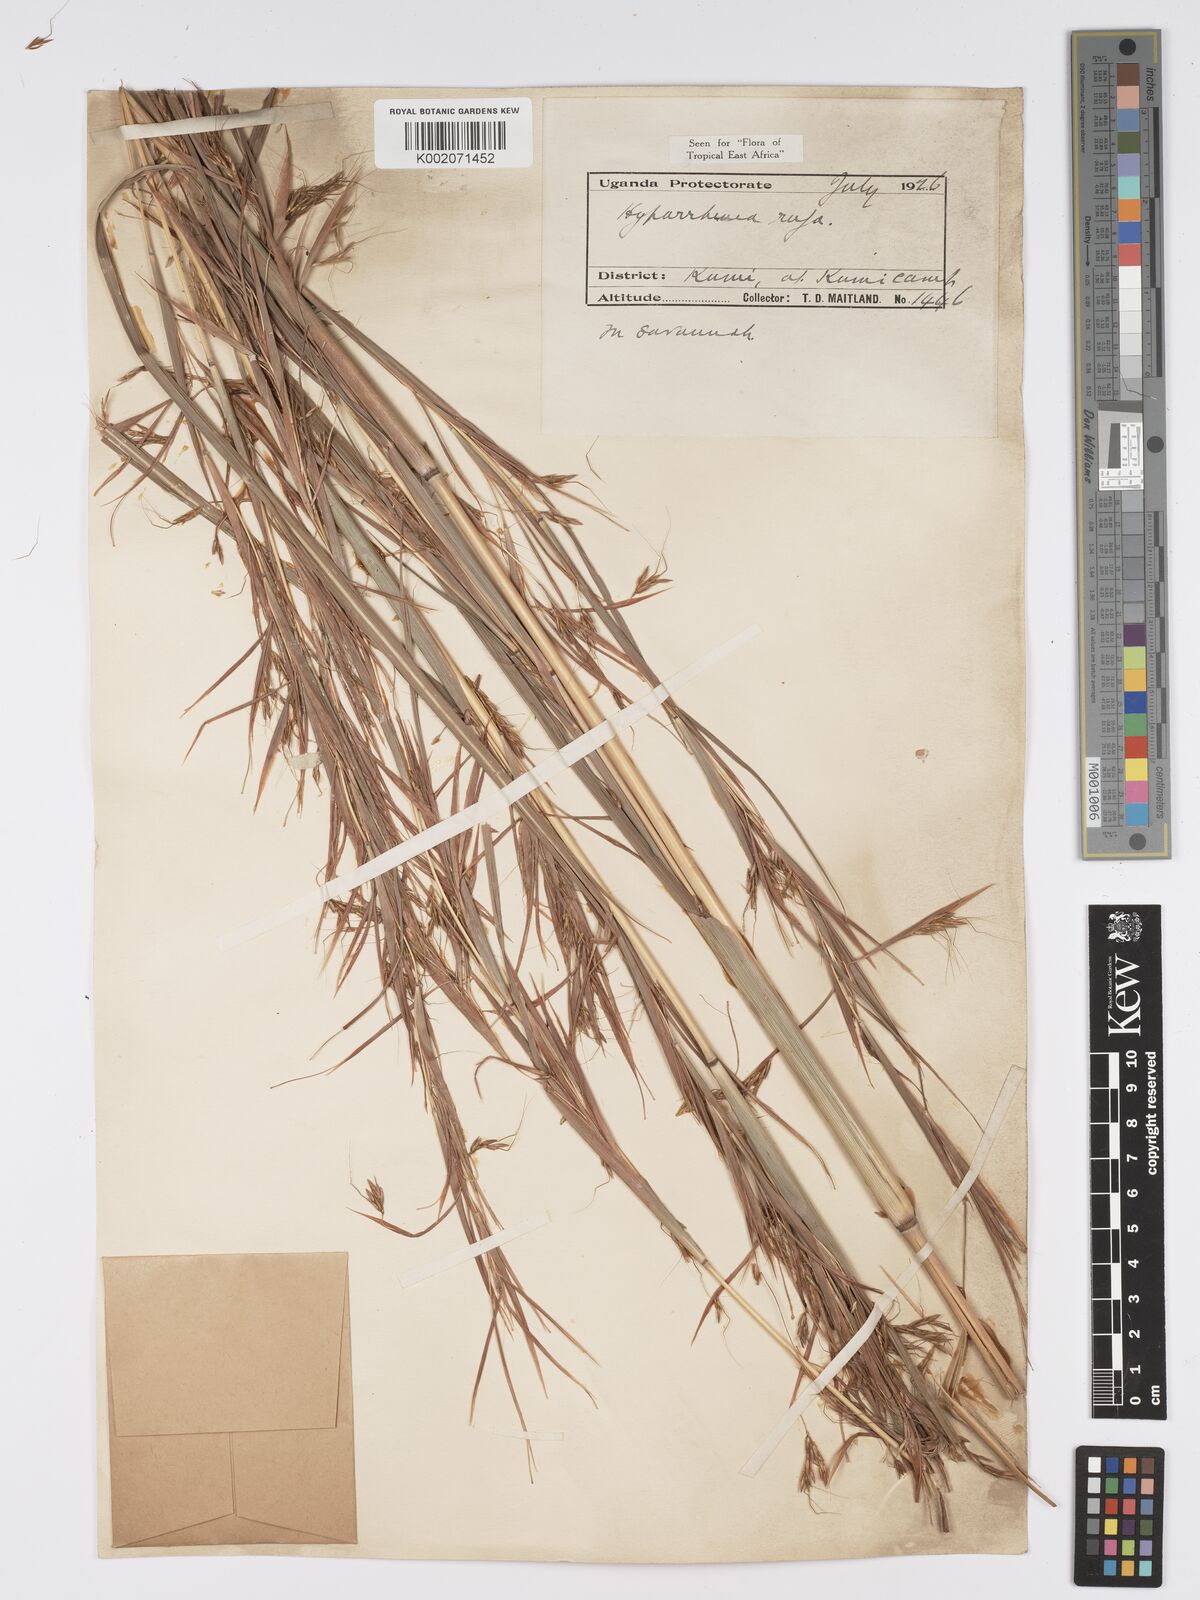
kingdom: Plantae
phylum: Tracheophyta
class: Liliopsida
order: Poales
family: Poaceae
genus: Hyparrhenia
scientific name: Hyparrhenia rufa
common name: Jaraguagrass
